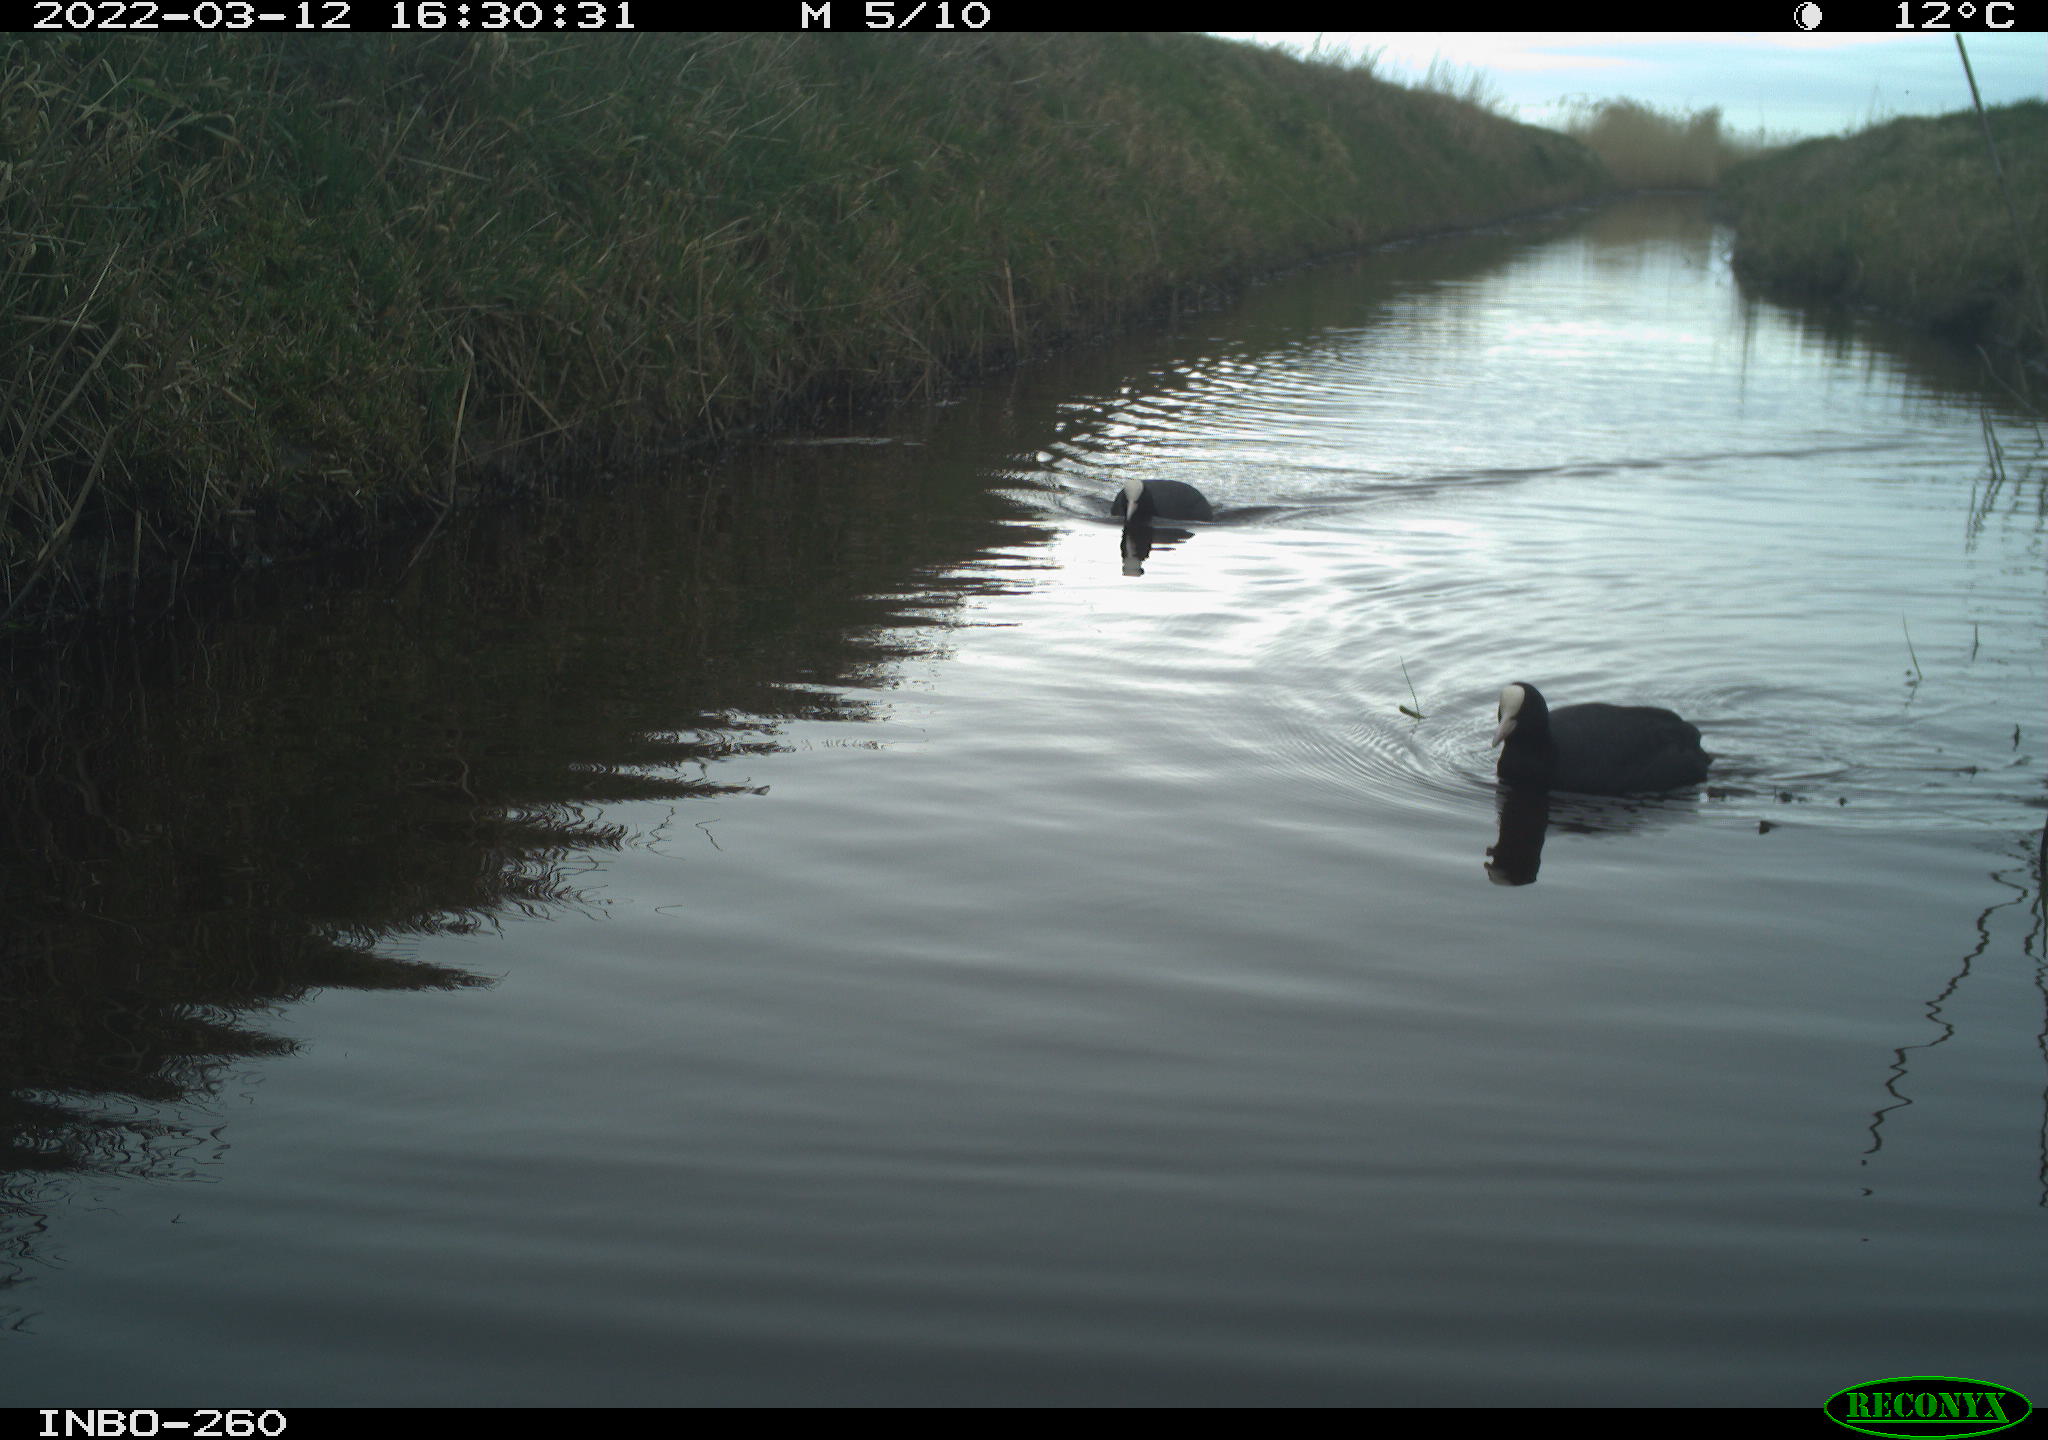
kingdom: Animalia
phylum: Chordata
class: Aves
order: Gruiformes
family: Rallidae
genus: Fulica
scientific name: Fulica atra
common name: Eurasian coot
